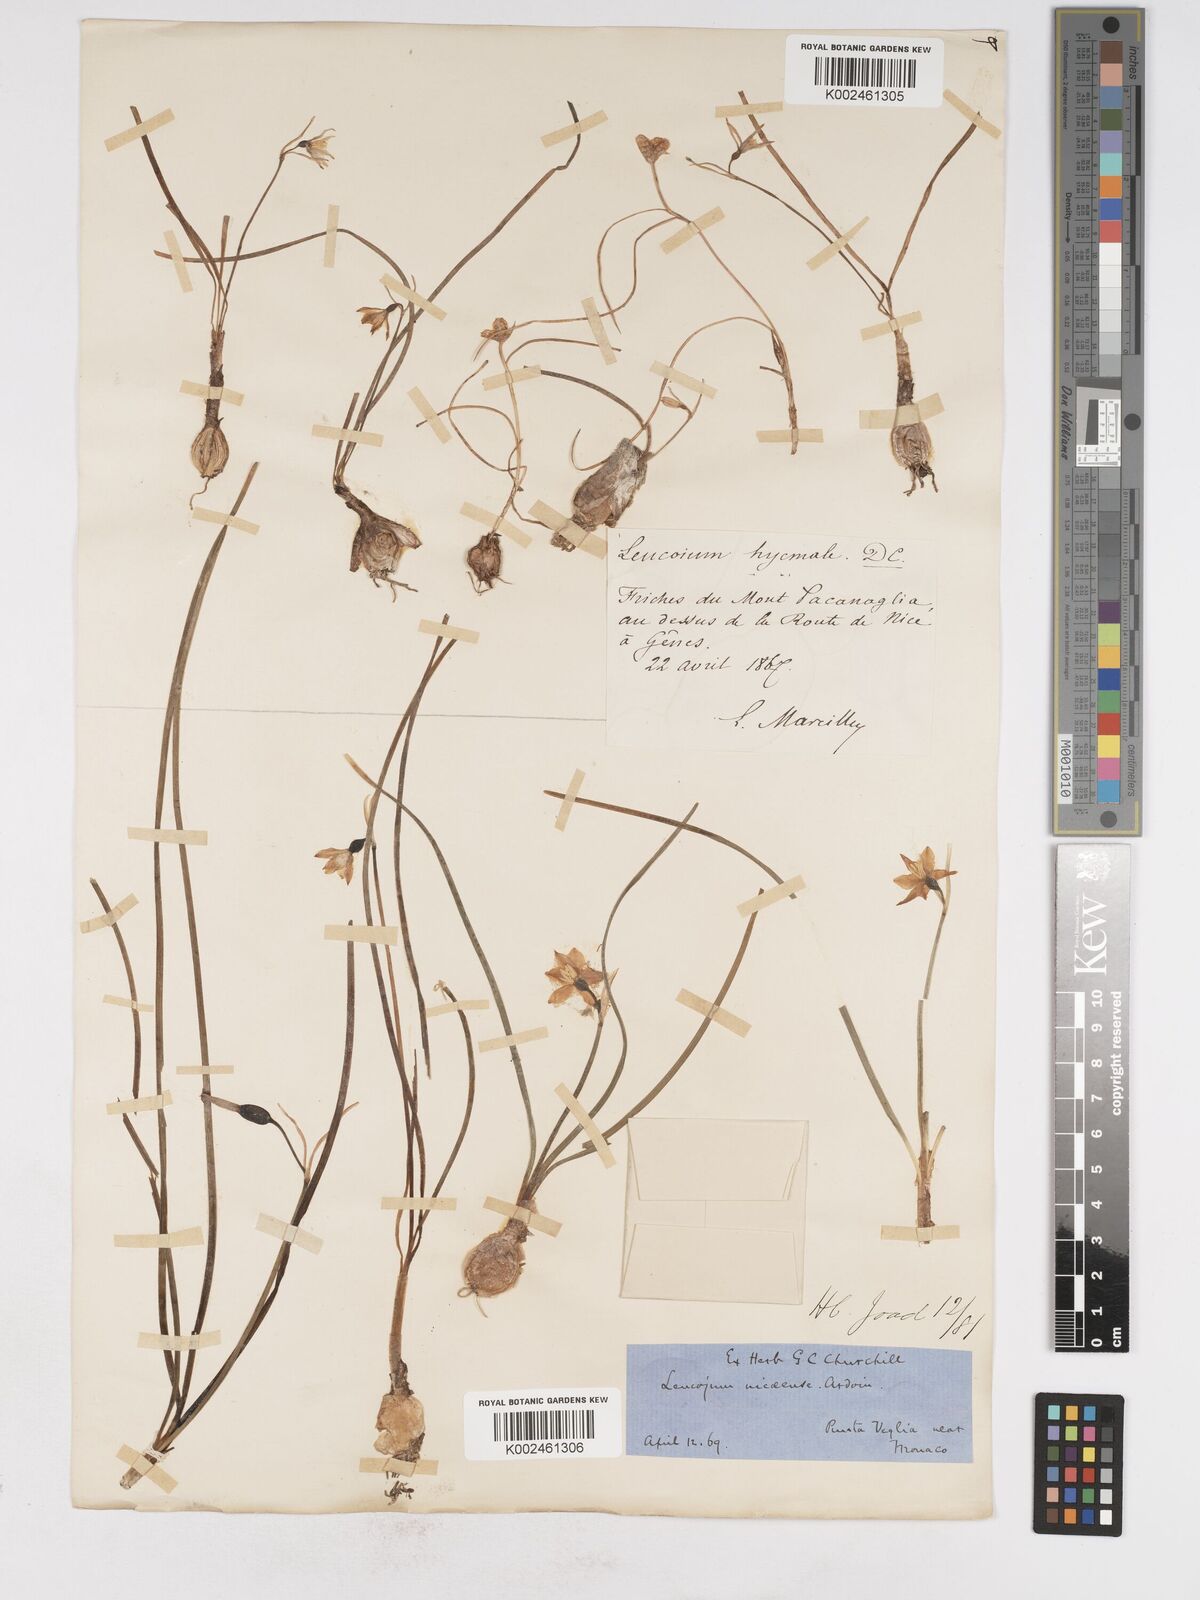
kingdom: Plantae
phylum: Tracheophyta
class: Liliopsida
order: Asparagales
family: Amaryllidaceae
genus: Acis
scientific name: Acis nicaeensis
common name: French snowflake
